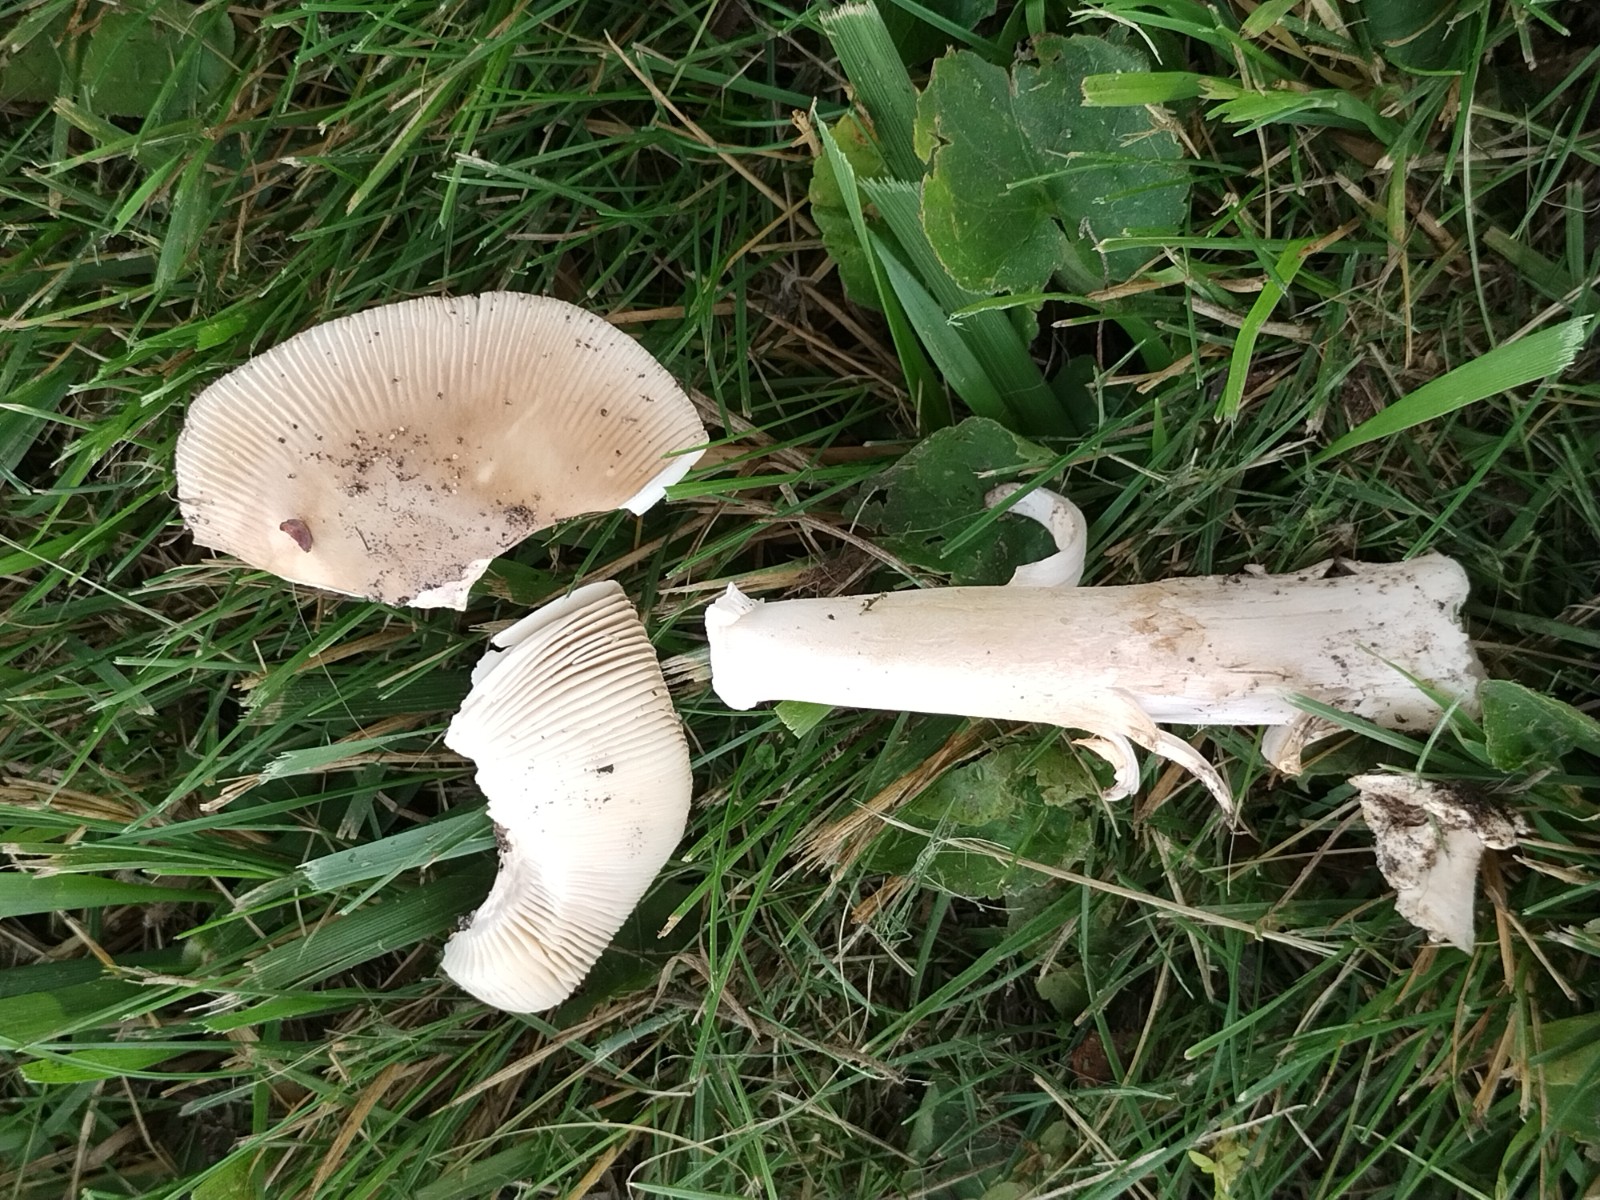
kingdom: Fungi
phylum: Basidiomycota
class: Agaricomycetes
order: Agaricales
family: Amanitaceae
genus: Amanita
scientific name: Amanita lividopallescens
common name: afblegende kam-fluesvamp
